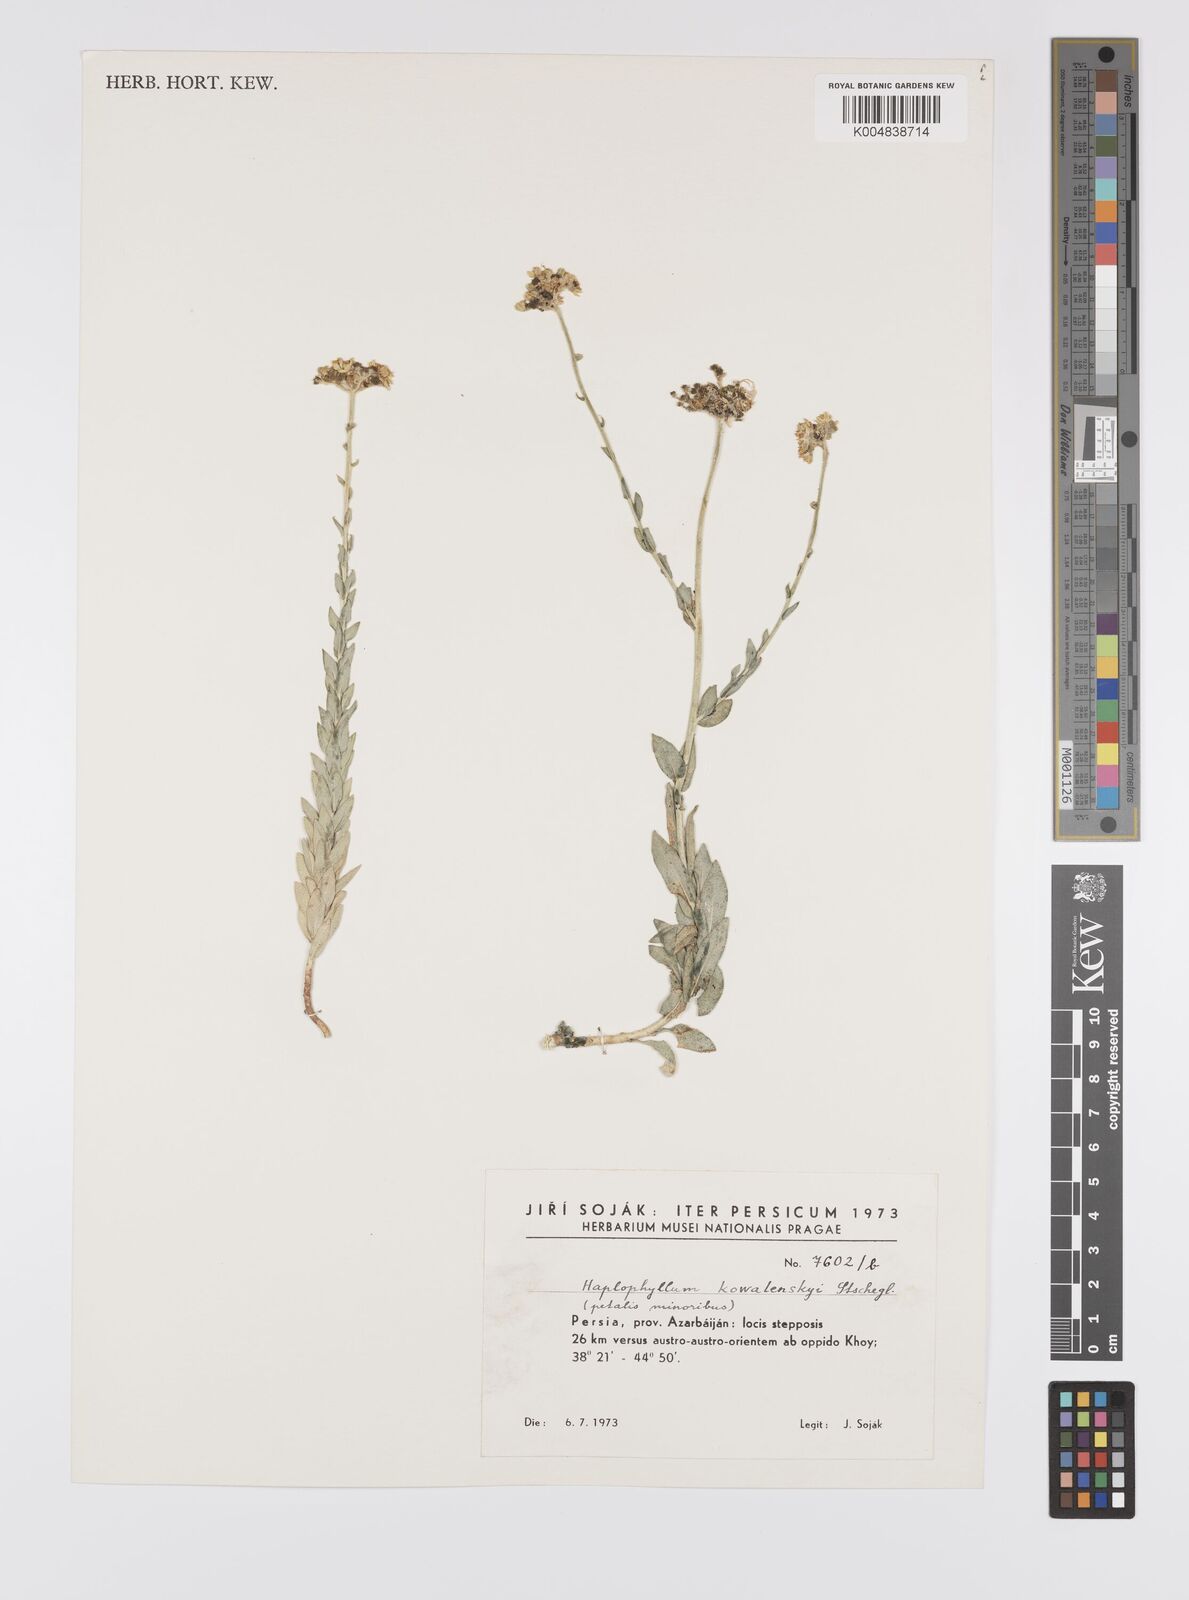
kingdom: Plantae
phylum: Tracheophyta
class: Magnoliopsida
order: Sapindales
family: Rutaceae
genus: Haplophyllum
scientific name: Haplophyllum kowalenskyi
